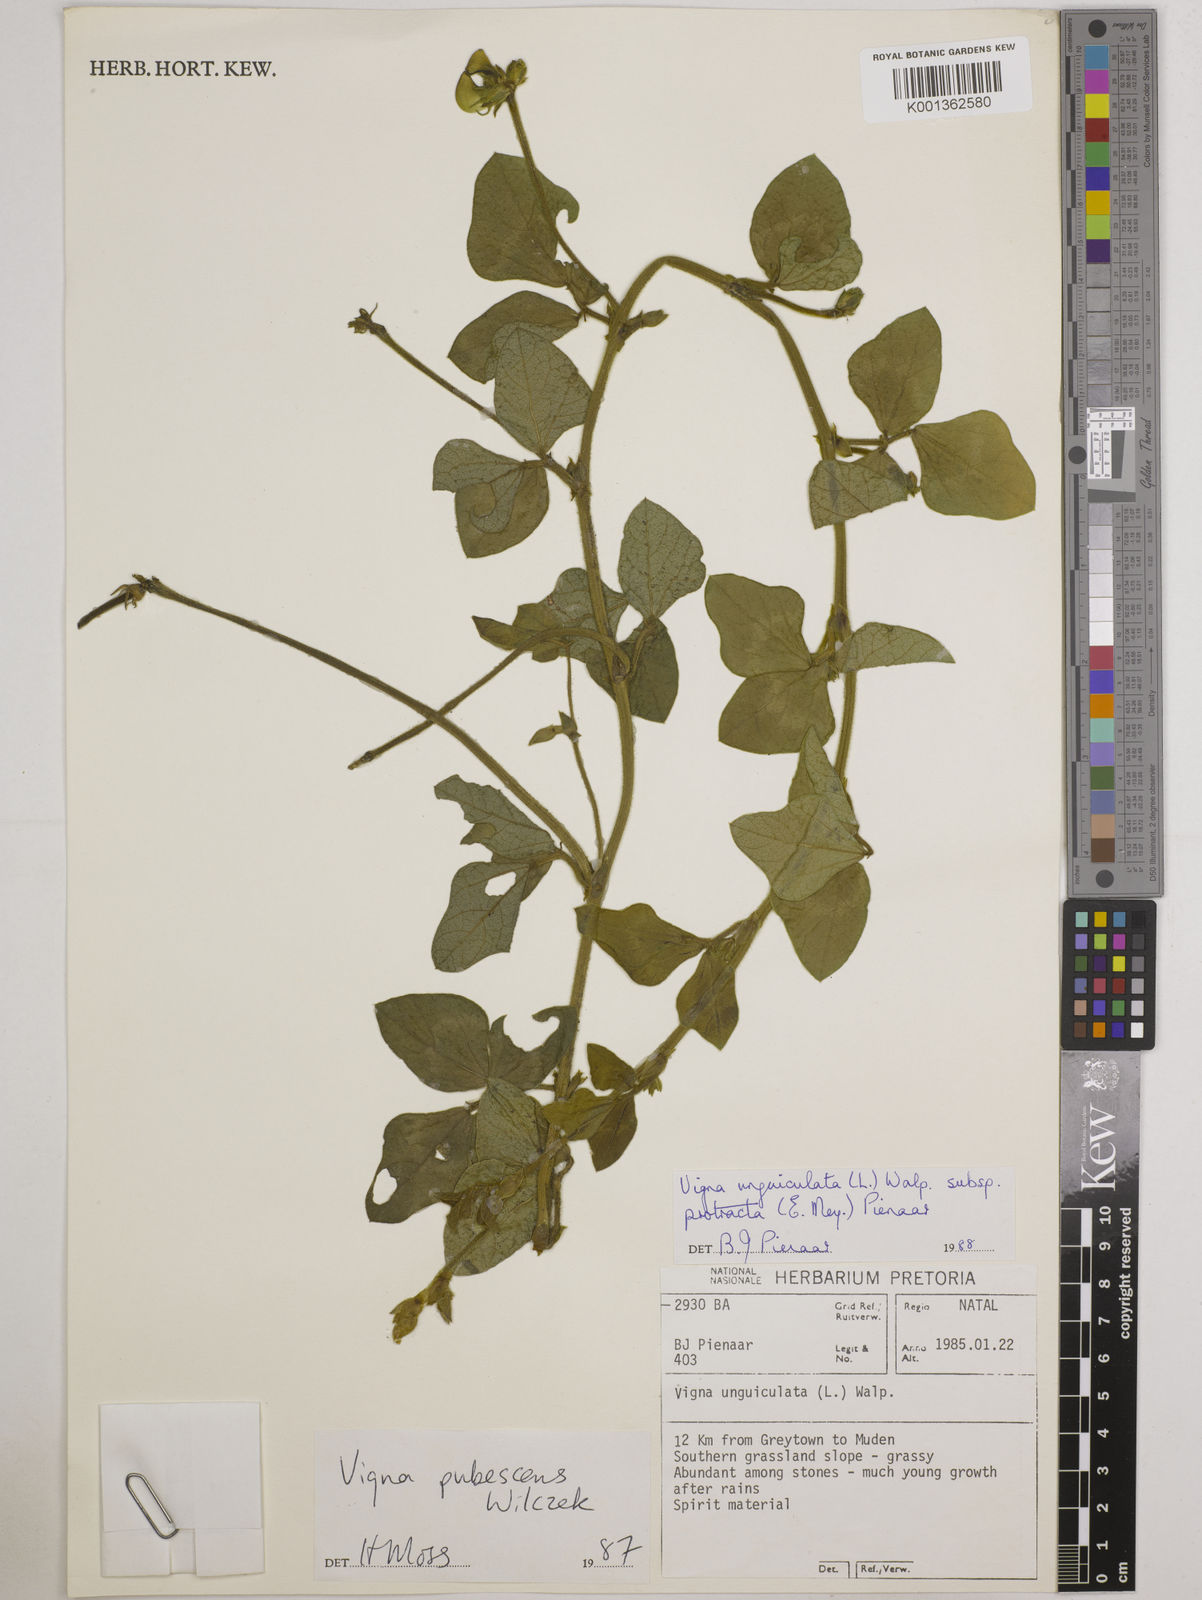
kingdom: Plantae
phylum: Tracheophyta
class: Magnoliopsida
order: Fabales
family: Fabaceae
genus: Vigna
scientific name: Vigna unguiculata
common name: Cowpea
